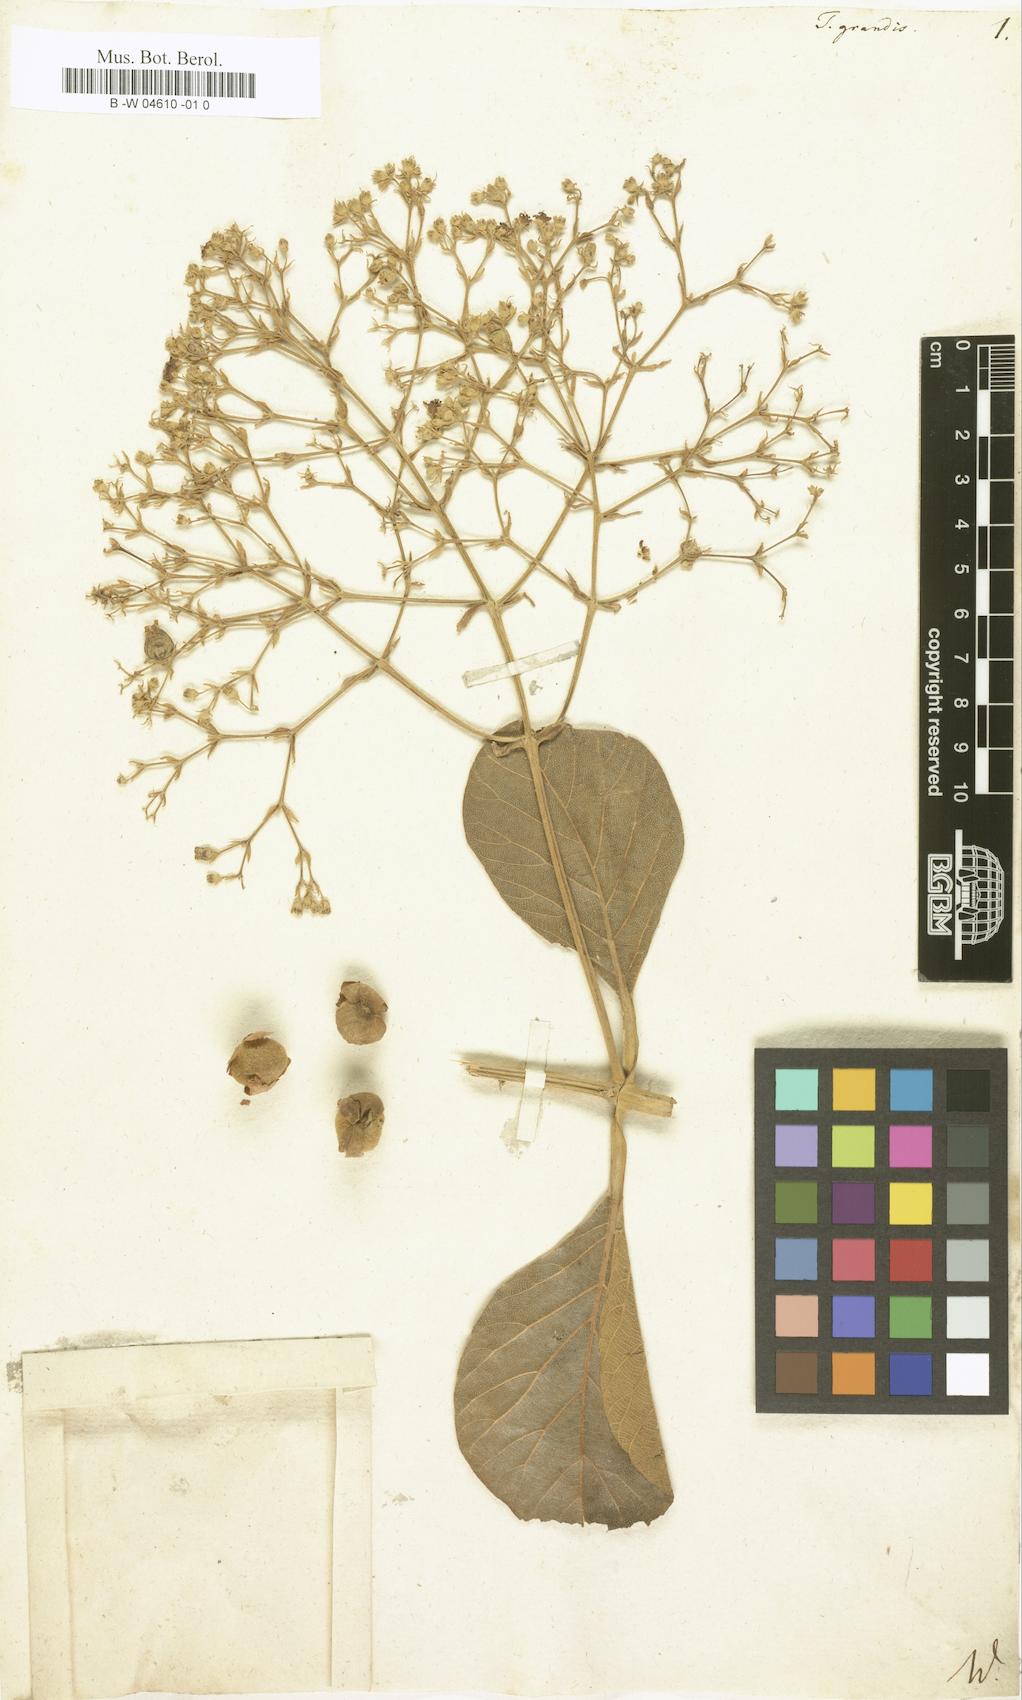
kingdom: Plantae
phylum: Tracheophyta
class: Magnoliopsida
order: Lamiales
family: Lamiaceae
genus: Tectona
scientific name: Tectona grandis
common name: Teak
